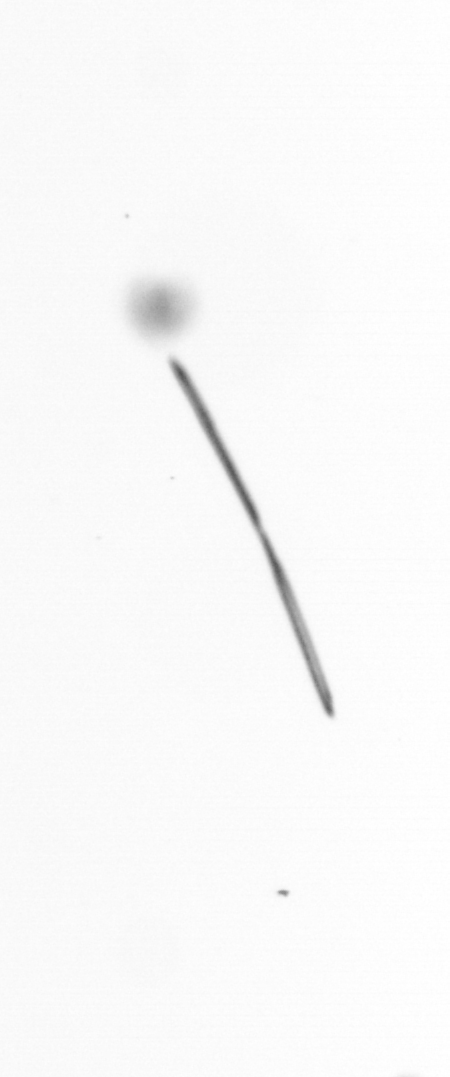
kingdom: Chromista
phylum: Ochrophyta
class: Bacillariophyceae
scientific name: Bacillariophyceae
